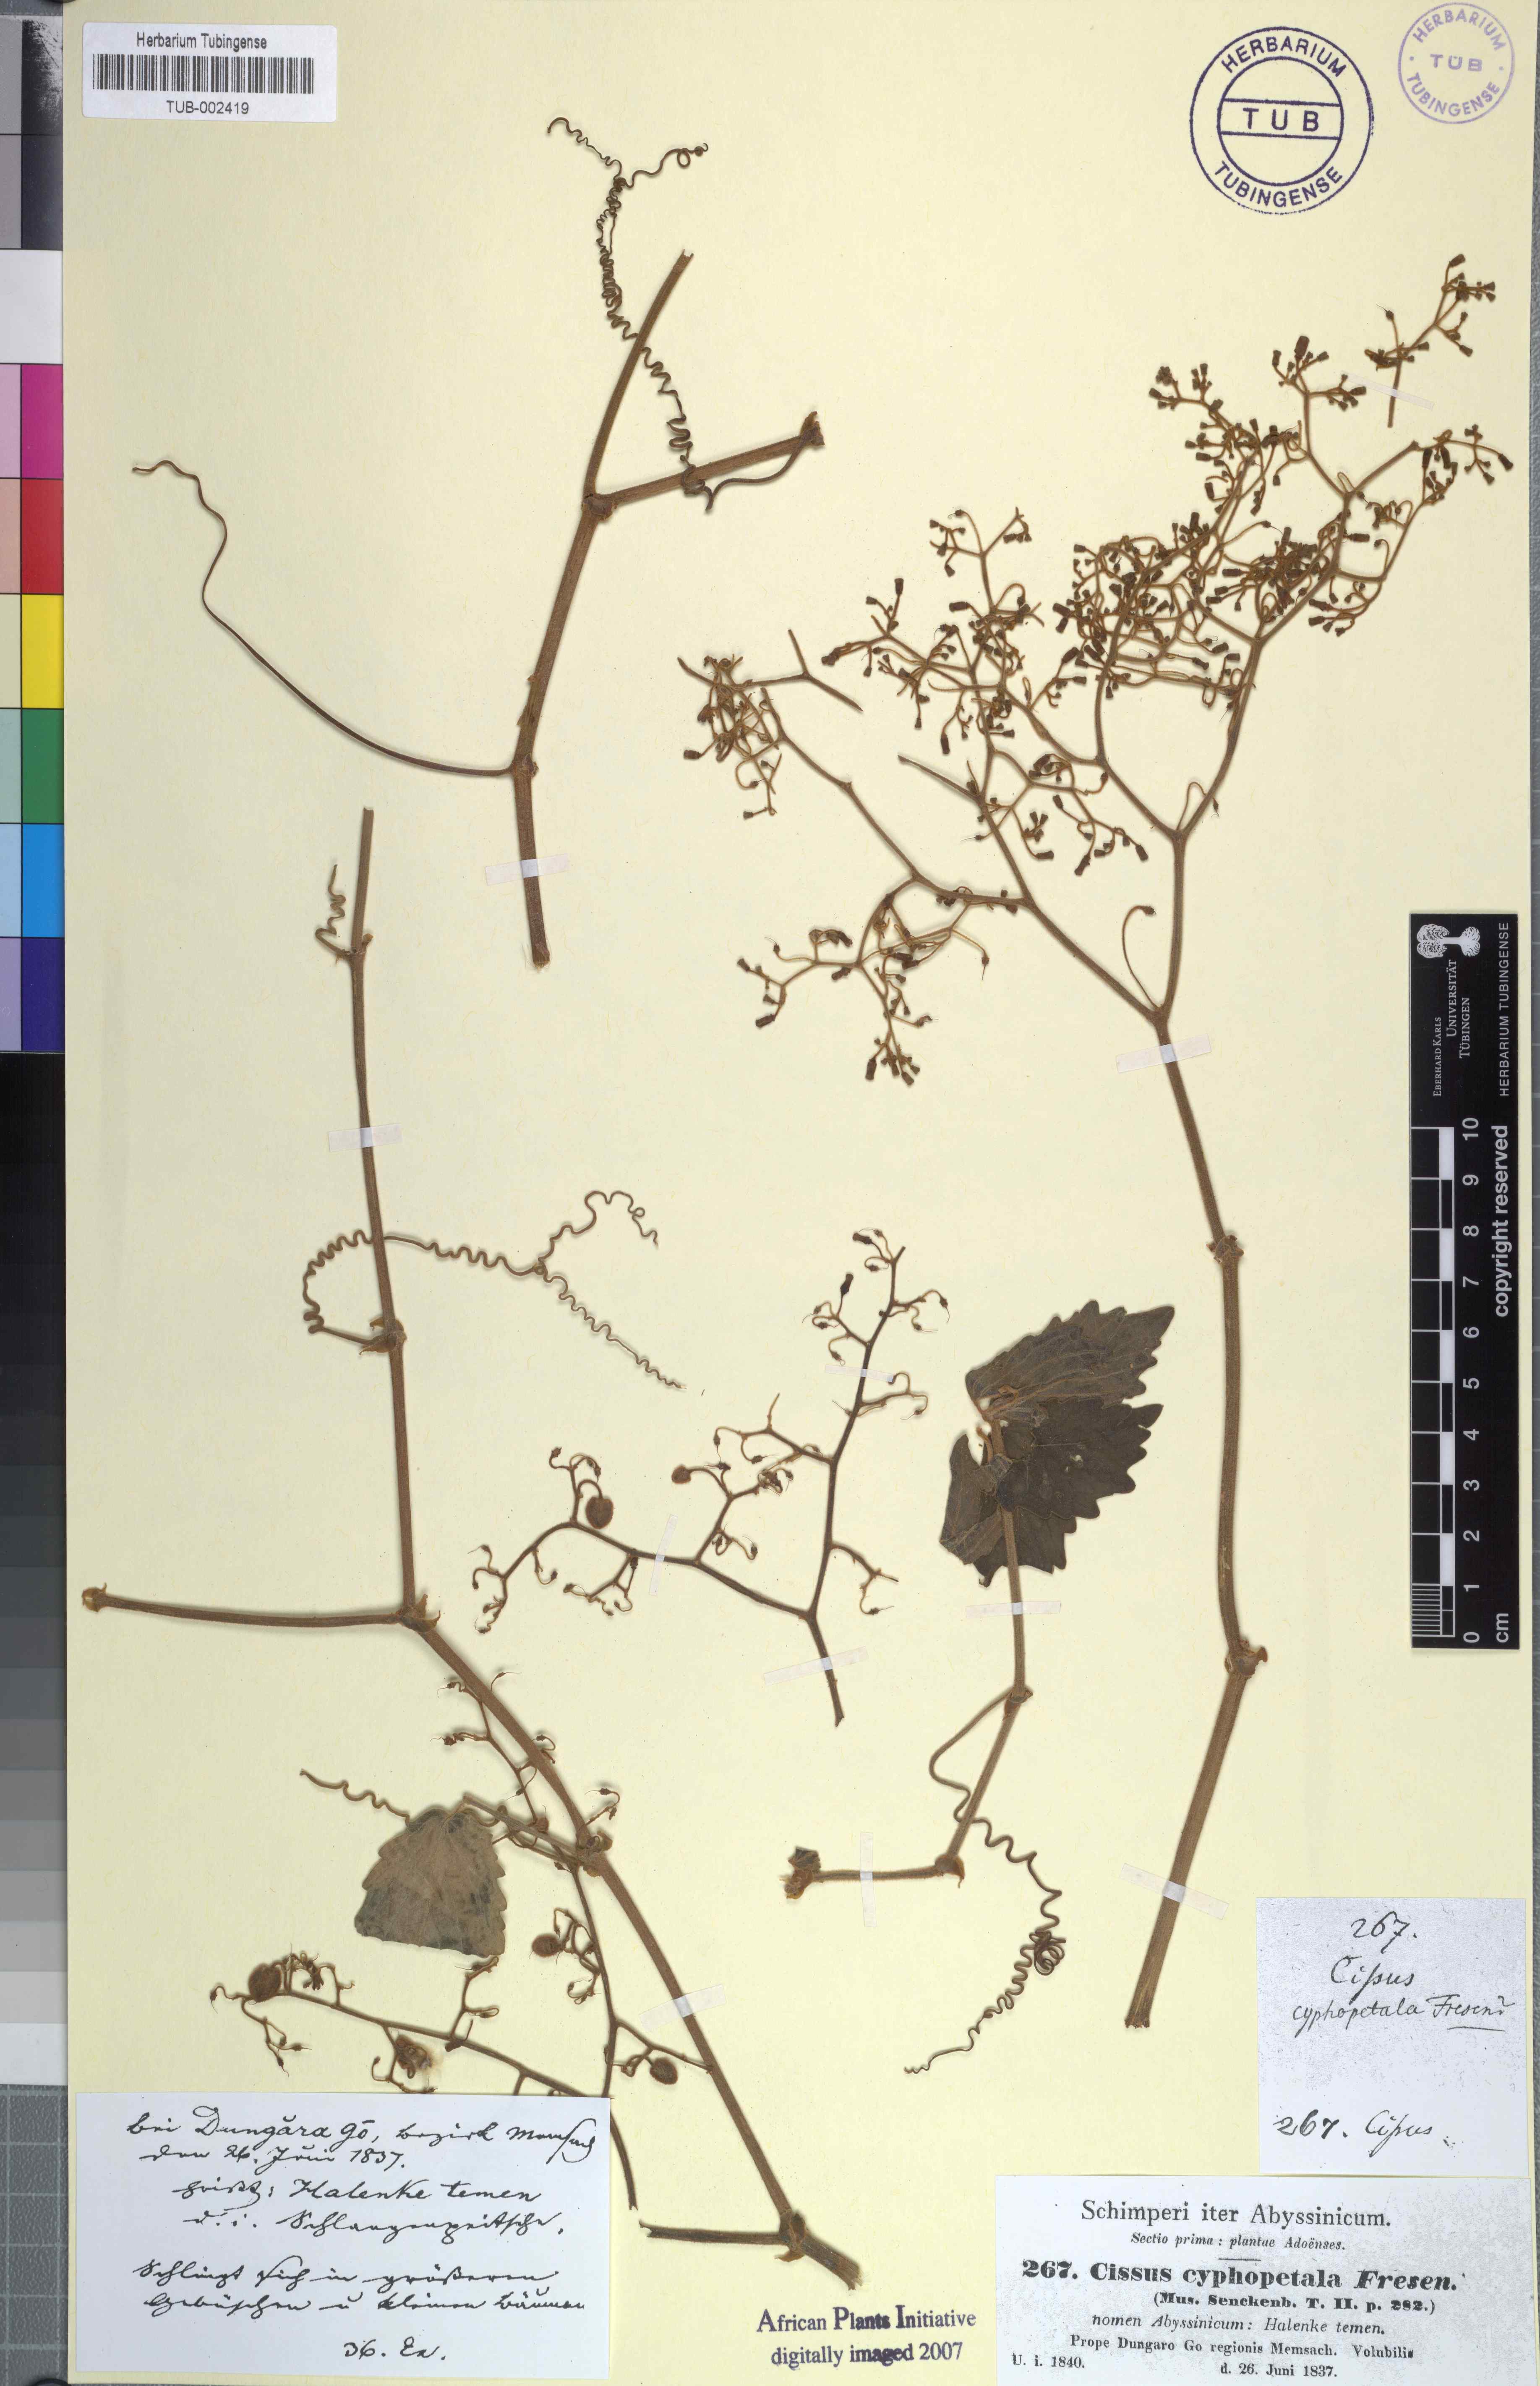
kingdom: Plantae
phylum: Tracheophyta
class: Magnoliopsida
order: Vitales
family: Vitaceae
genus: Cyphostemma
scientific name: Cyphostemma cyphopetalum
